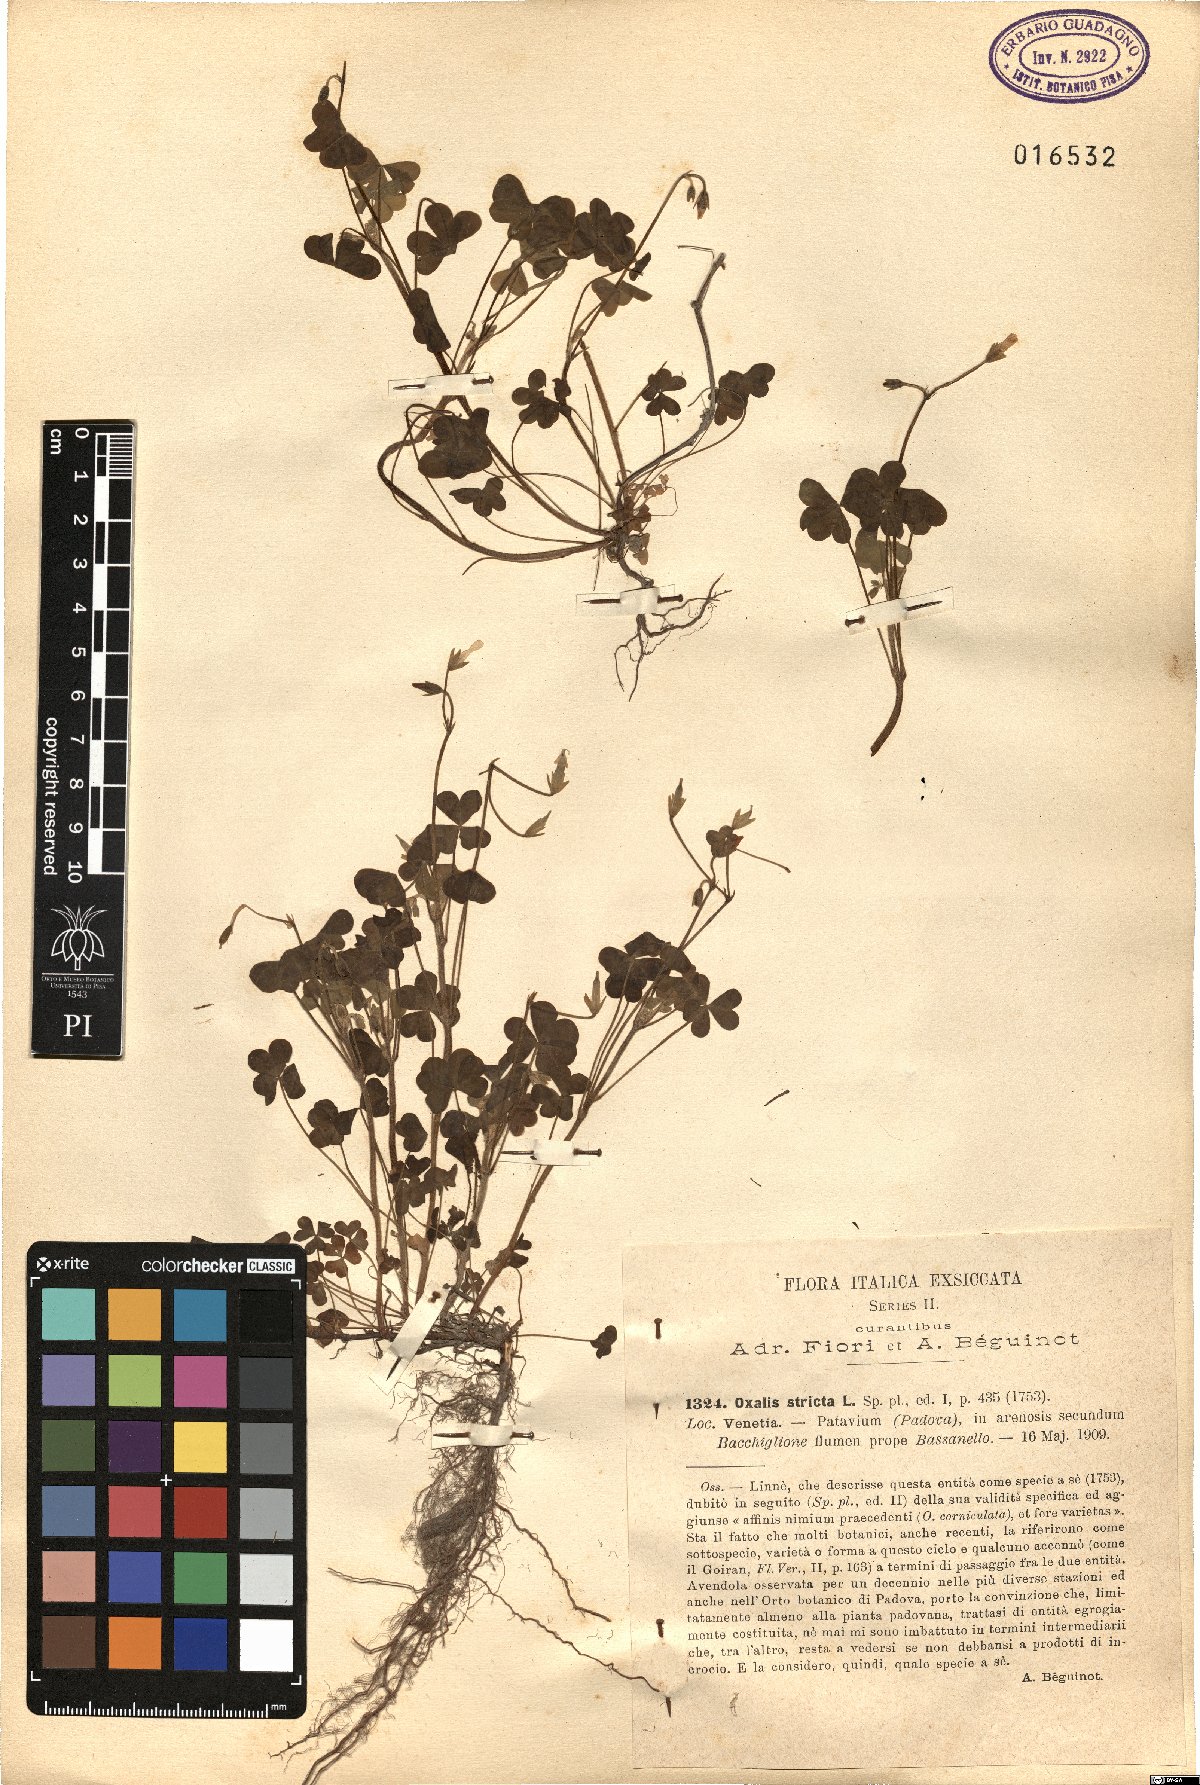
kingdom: Plantae
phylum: Tracheophyta
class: Magnoliopsida
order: Oxalidales
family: Oxalidaceae
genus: Oxalis
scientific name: Oxalis stricta
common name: Upright yellow-sorrel
